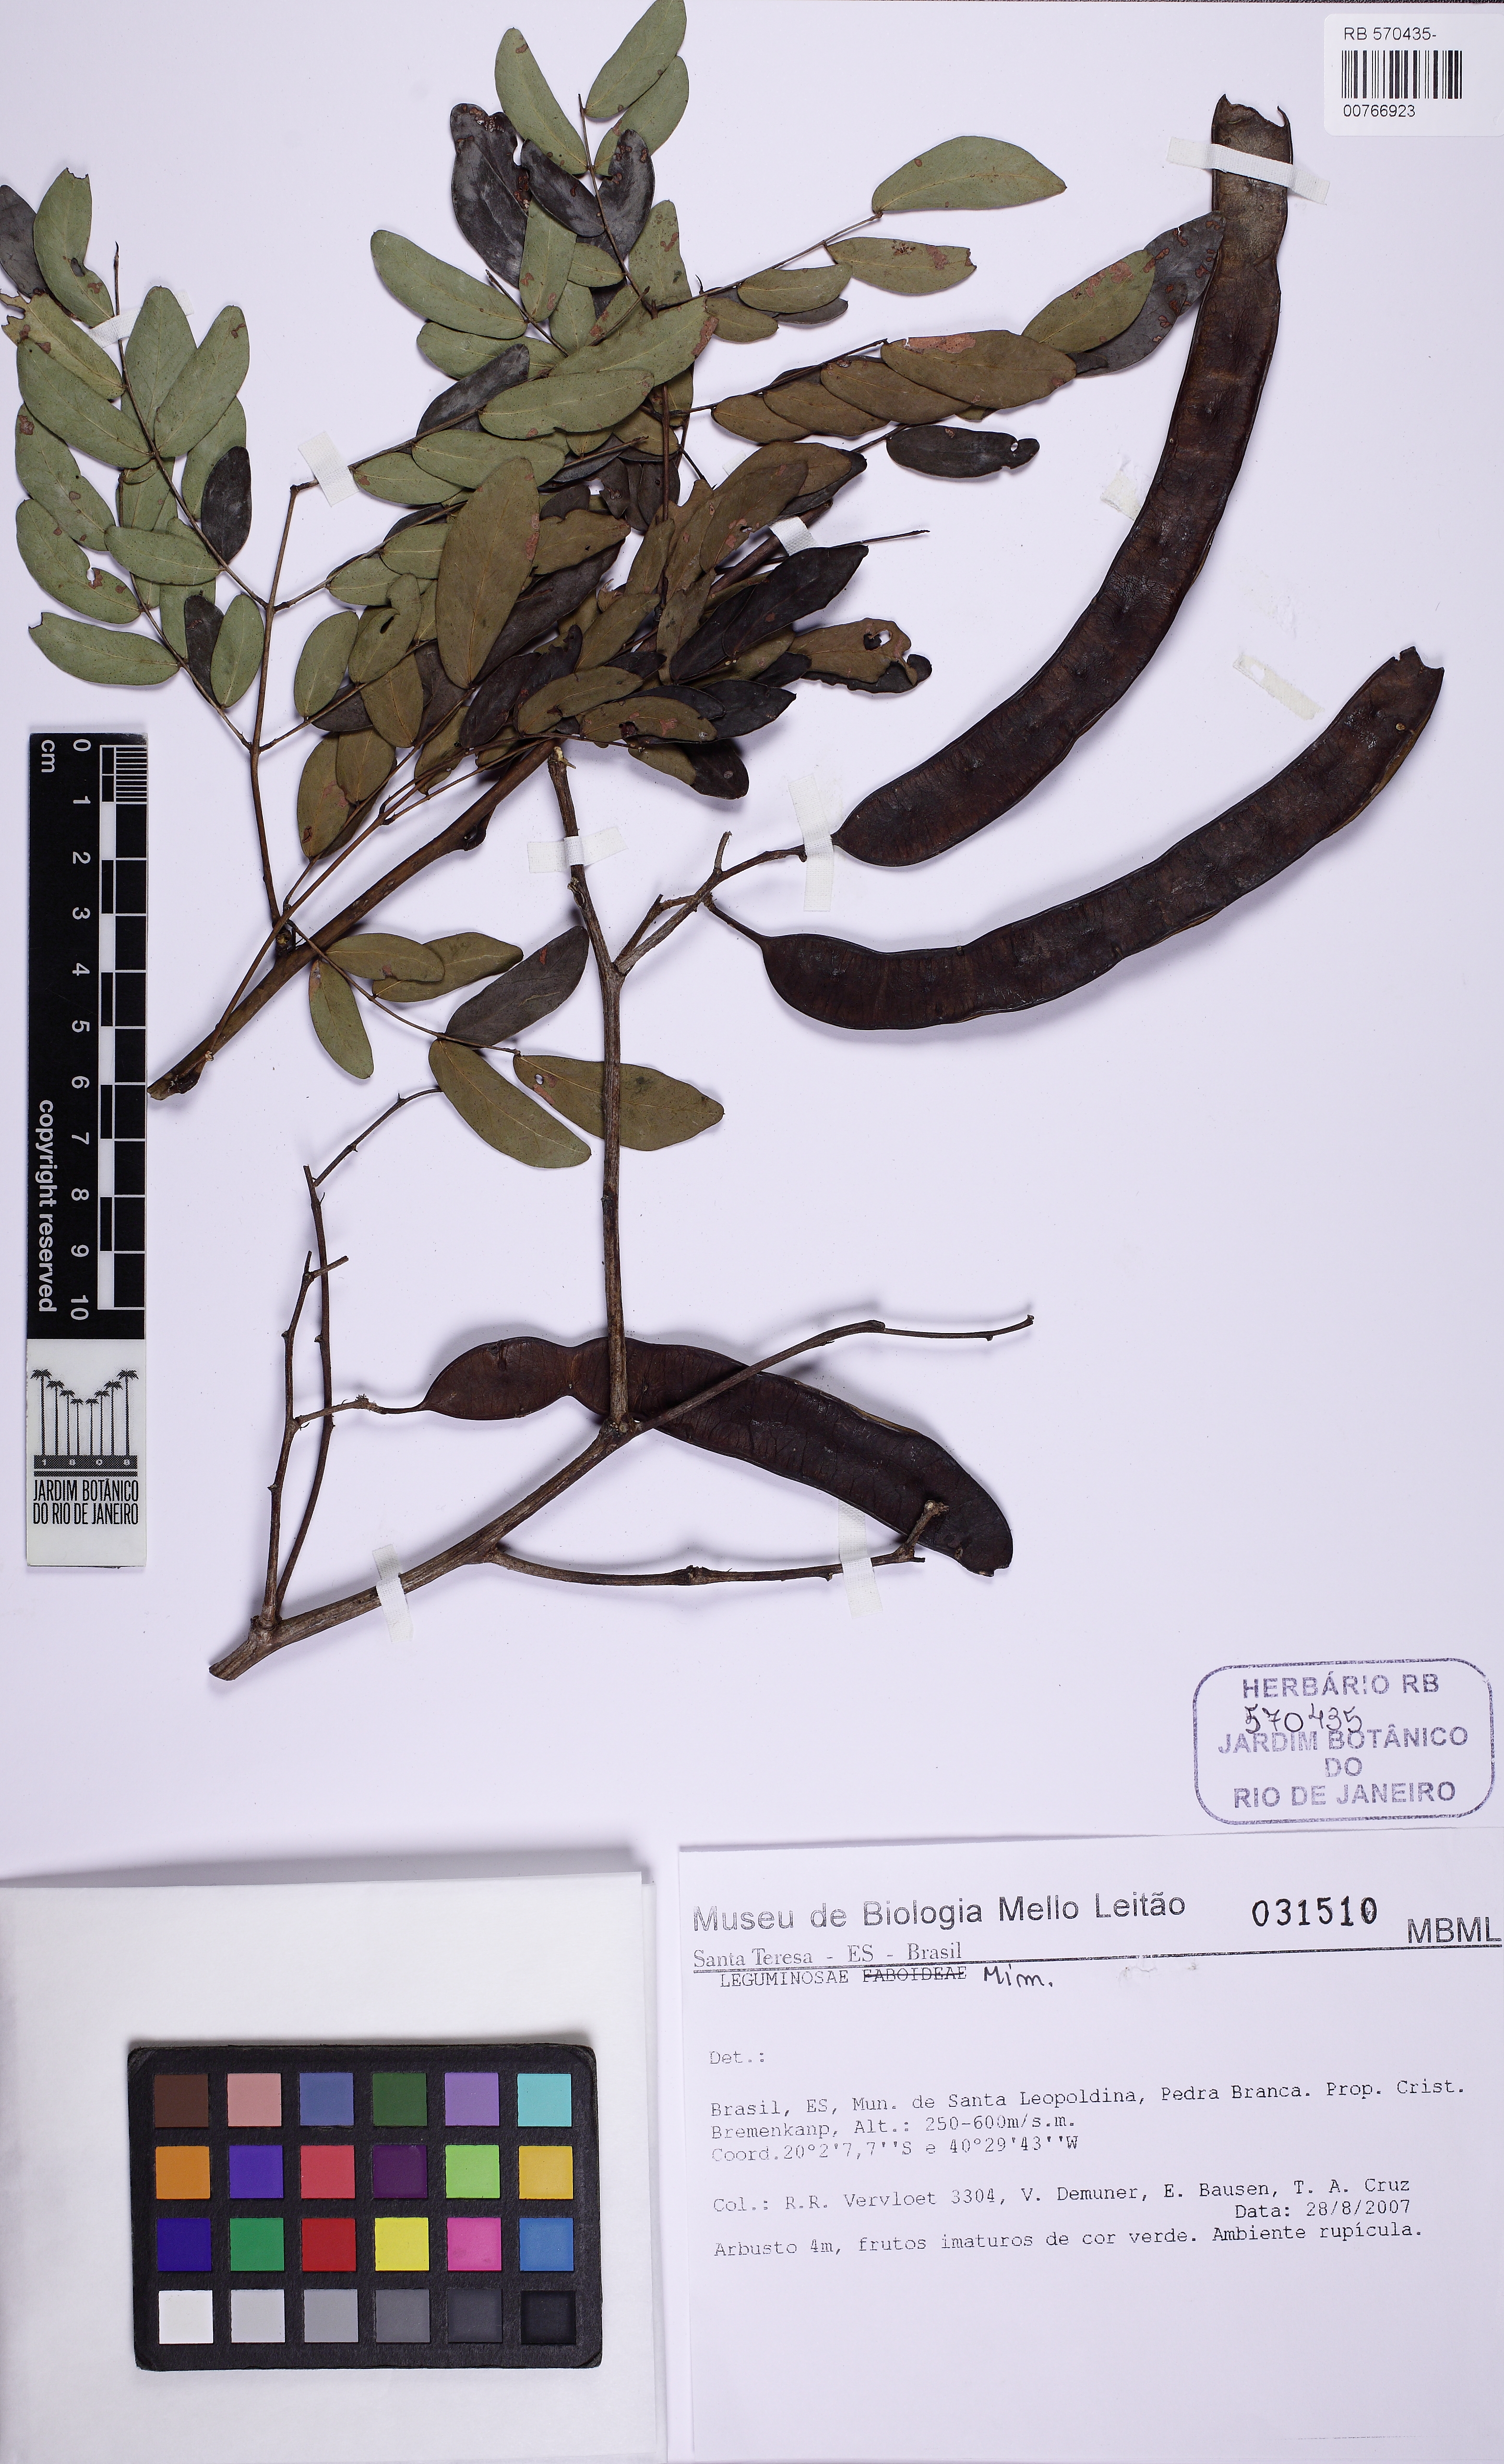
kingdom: Plantae
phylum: Tracheophyta
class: Magnoliopsida
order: Fabales
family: Fabaceae
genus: Pseudopiptadenia
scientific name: Pseudopiptadenia contorta
